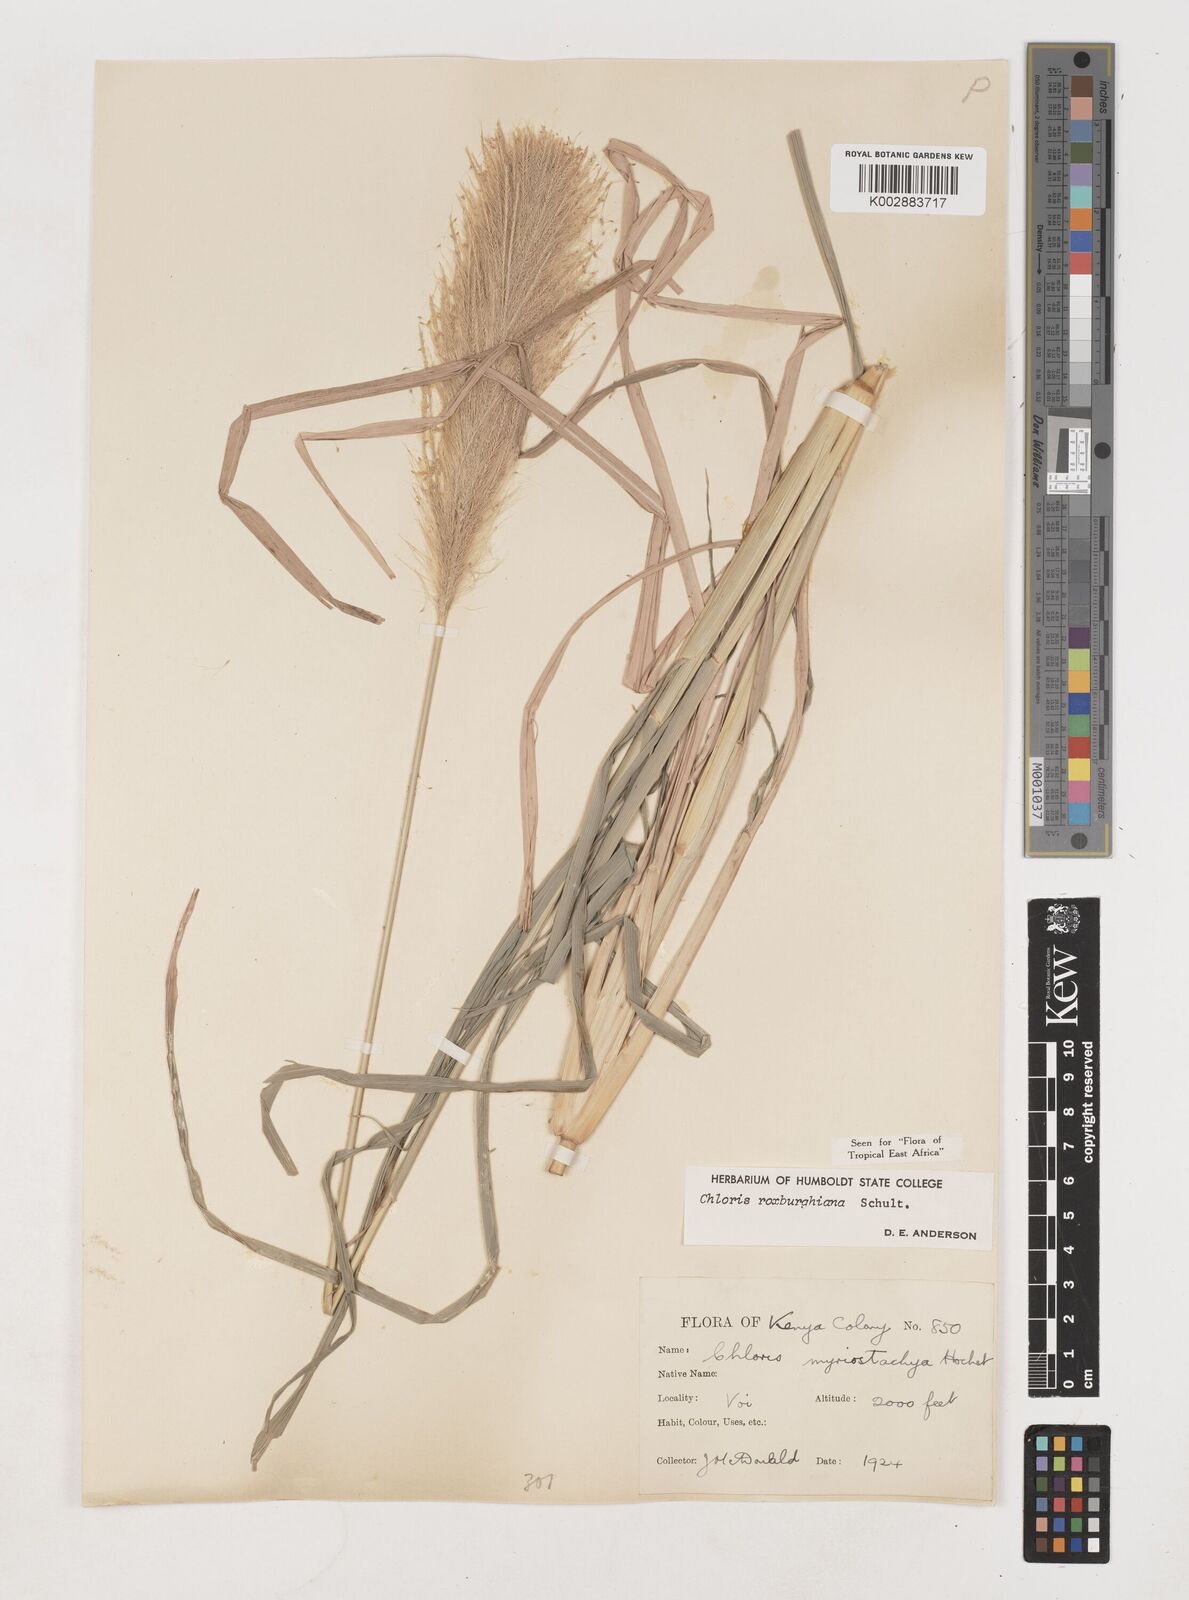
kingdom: Plantae
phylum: Tracheophyta
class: Liliopsida
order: Poales
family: Poaceae
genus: Tetrapogon
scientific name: Tetrapogon roxburghiana
